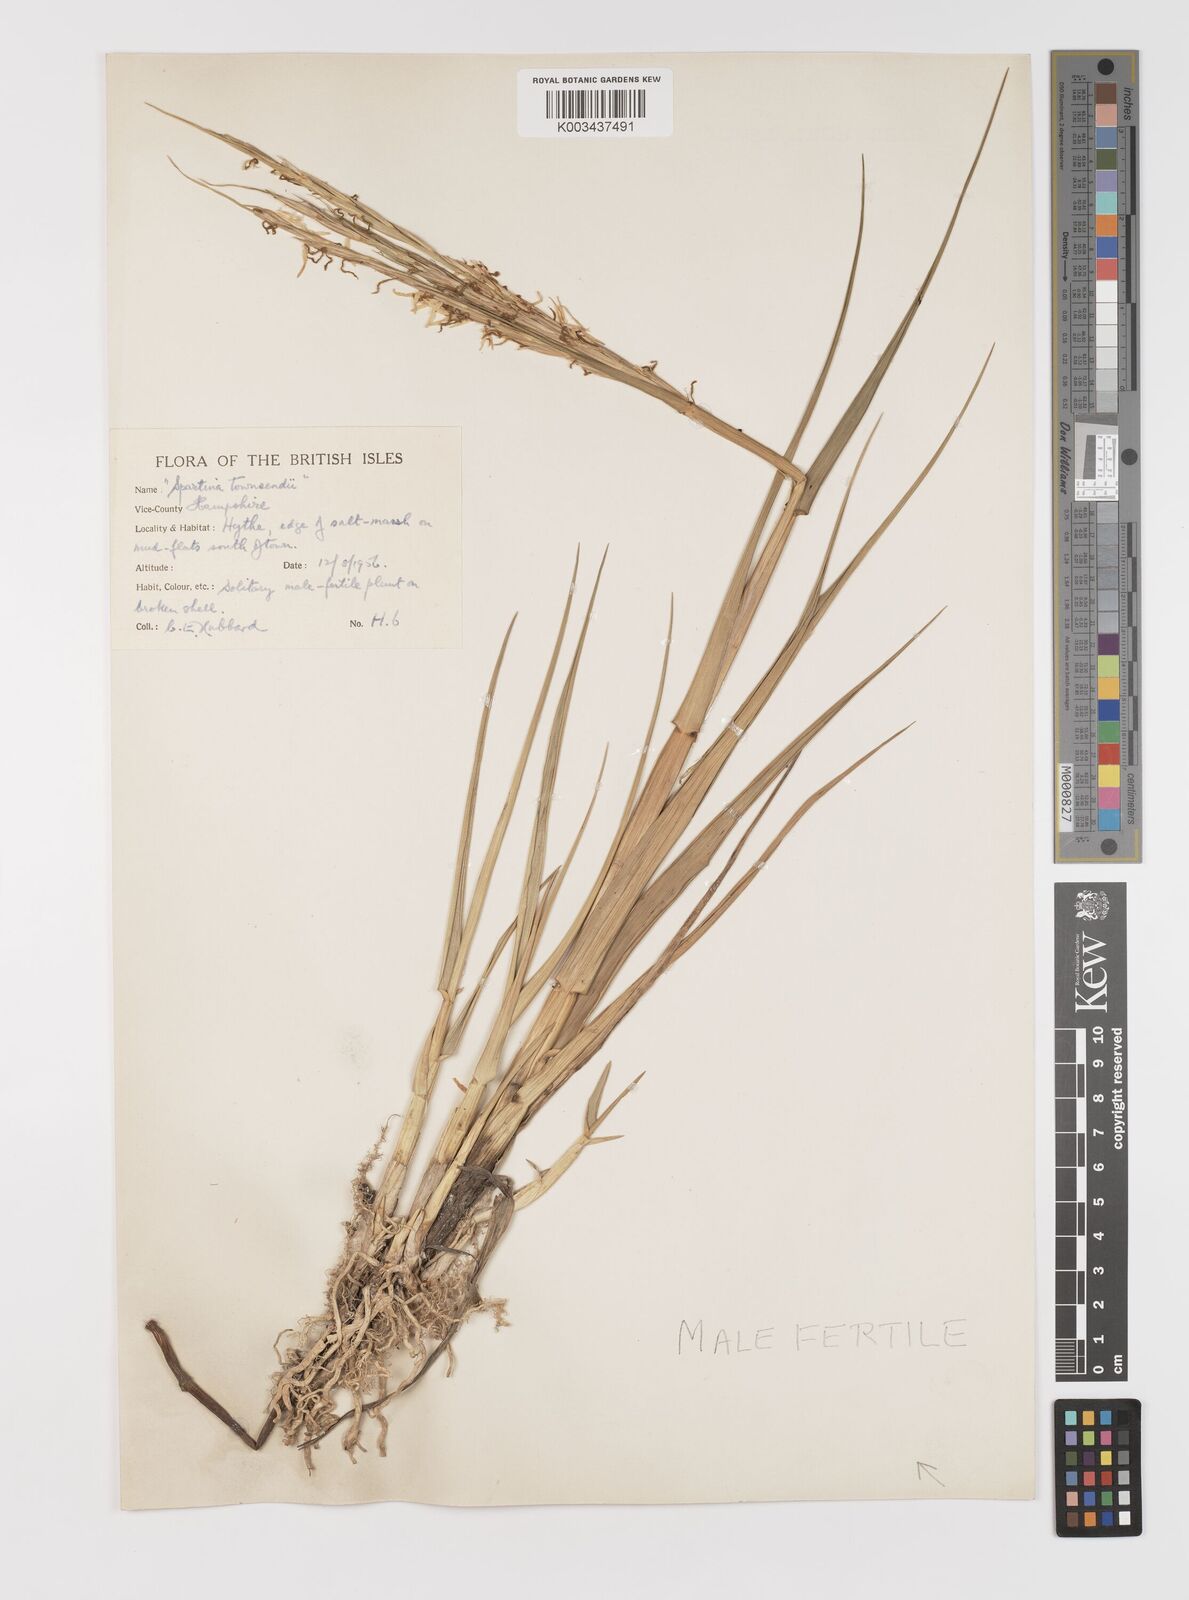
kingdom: Plantae
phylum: Tracheophyta
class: Liliopsida
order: Poales
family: Poaceae
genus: Sporobolus
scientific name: Sporobolus anglicus
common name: English cordgrass
